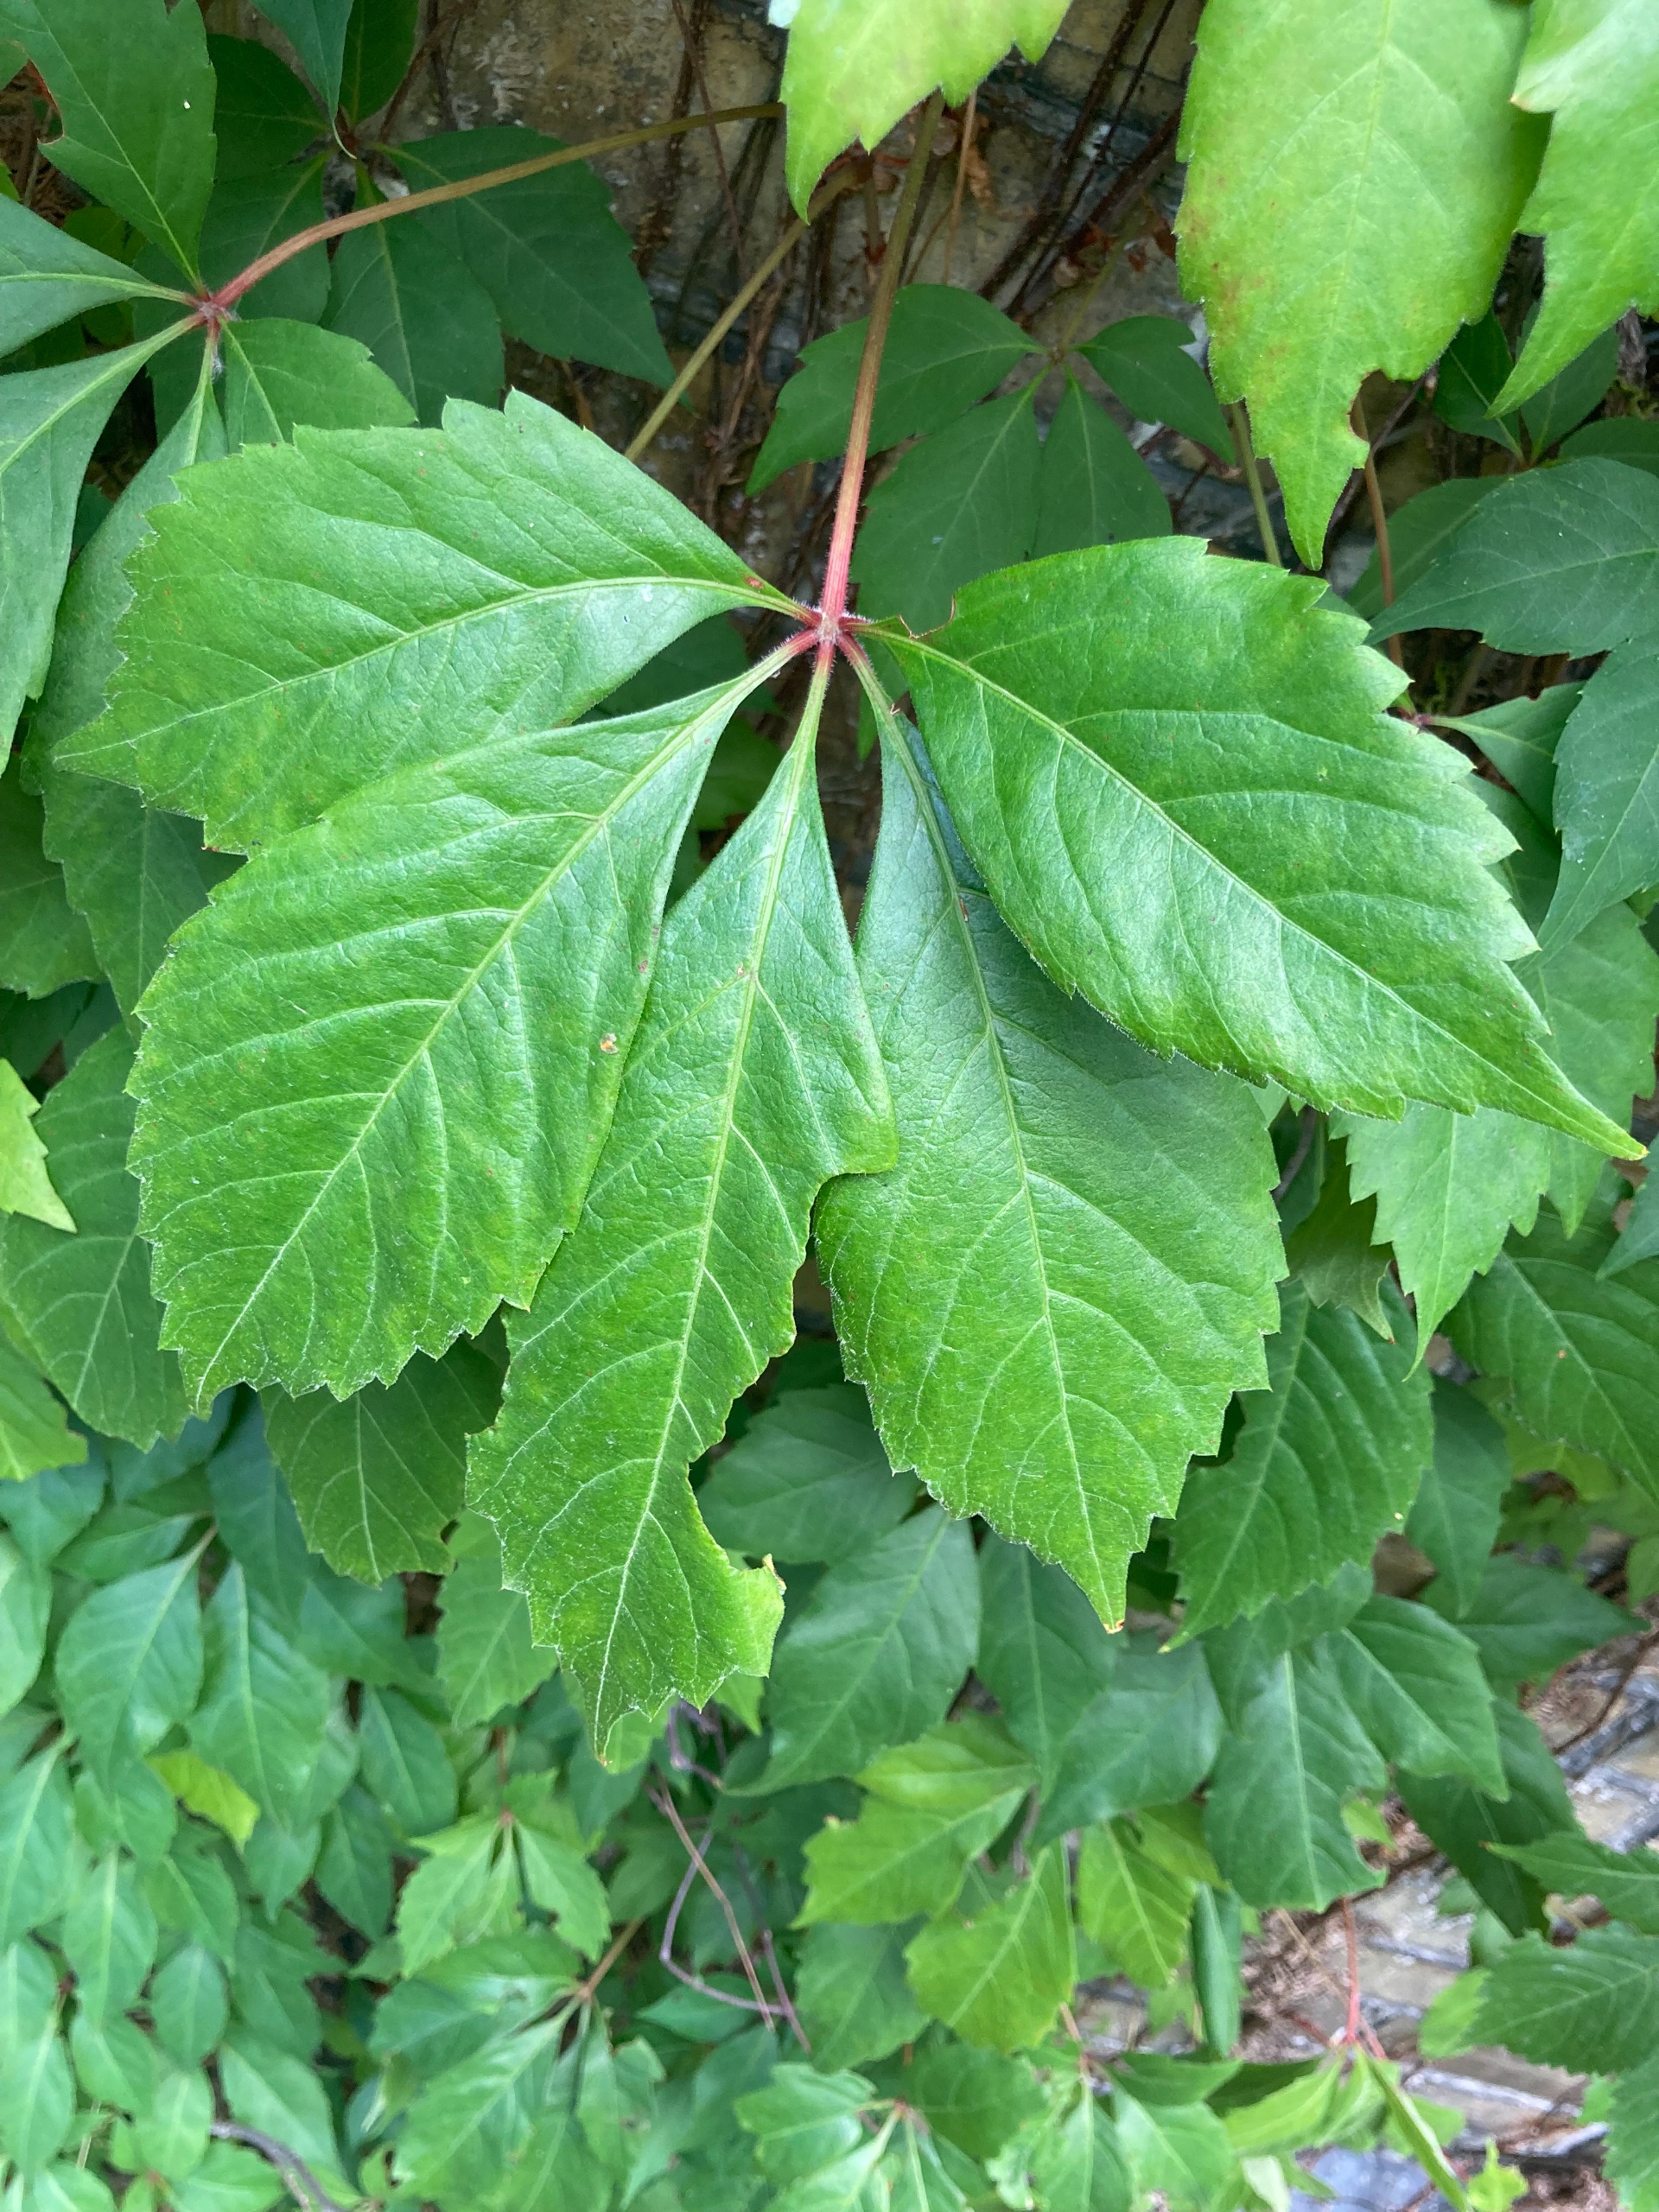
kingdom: Plantae
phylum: Tracheophyta
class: Magnoliopsida
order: Vitales
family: Vitaceae
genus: Parthenocissus
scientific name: Parthenocissus
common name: Vildvinslægten
